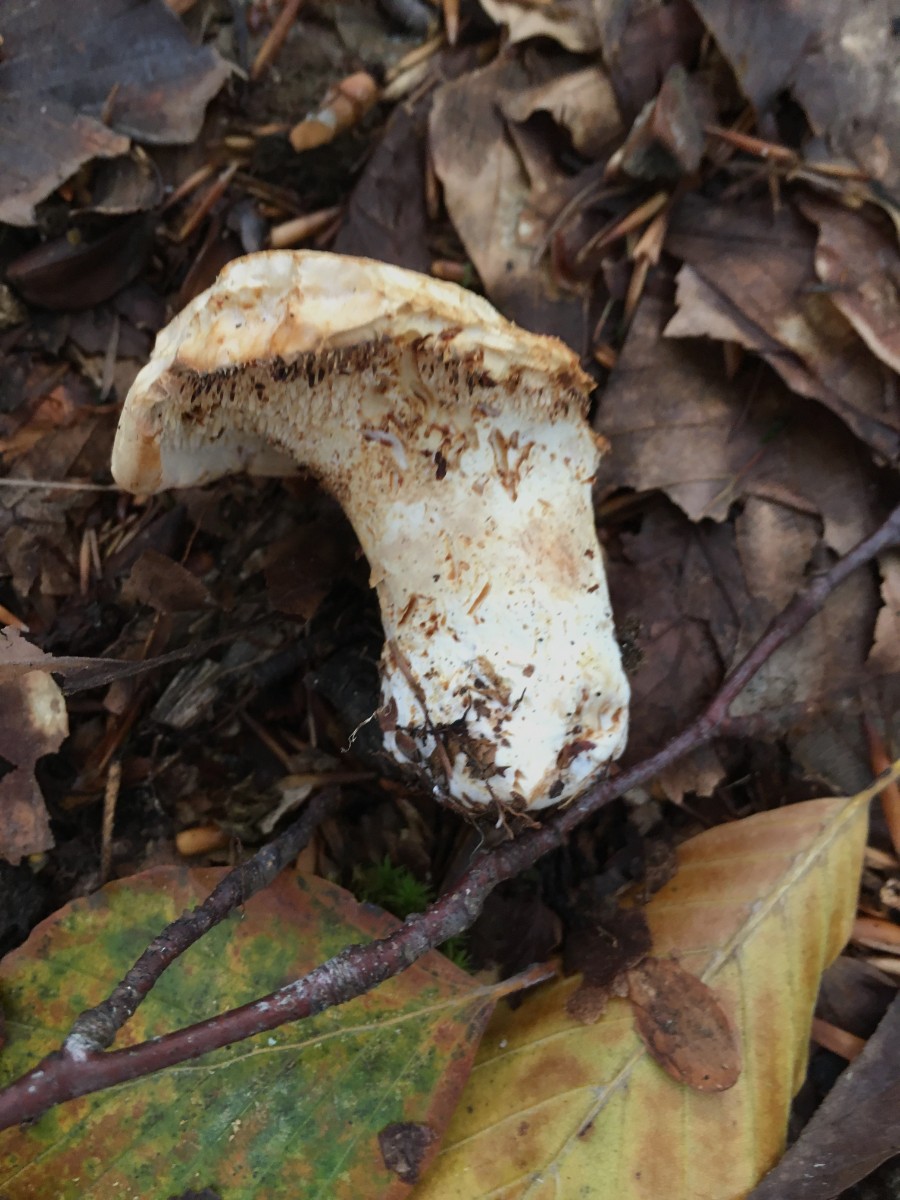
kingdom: Fungi
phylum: Basidiomycota
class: Agaricomycetes
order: Cantharellales
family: Hydnaceae
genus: Hydnum
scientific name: Hydnum rufescens
